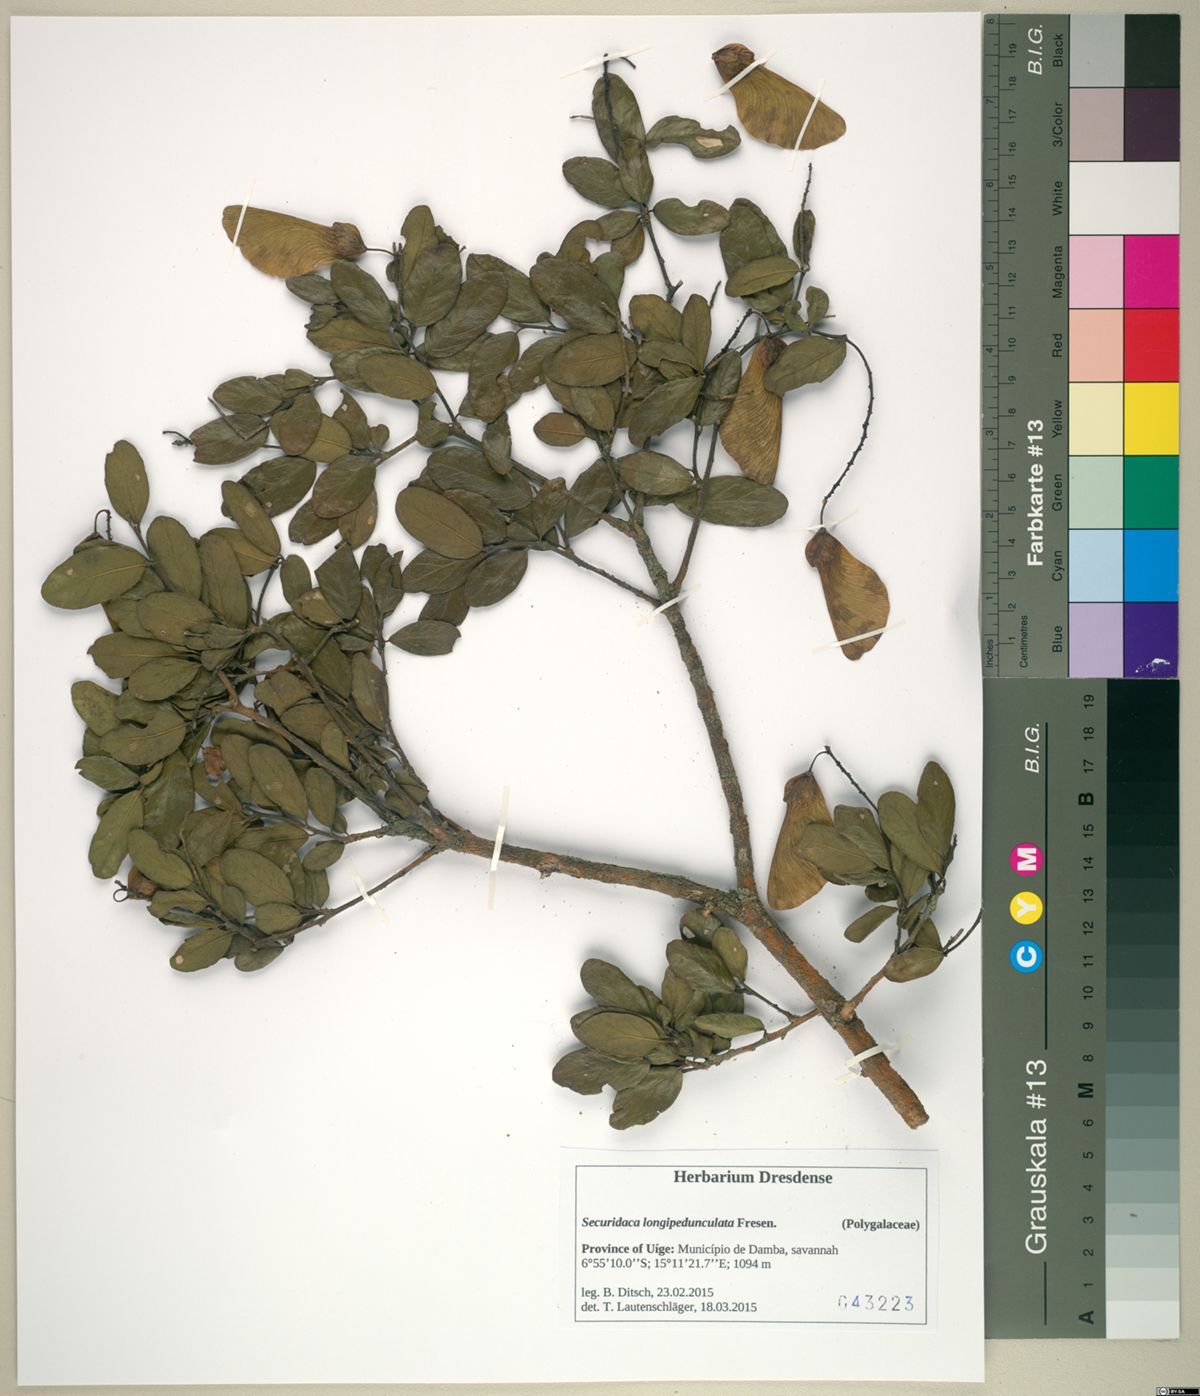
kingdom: Plantae
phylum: Tracheophyta
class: Magnoliopsida
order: Fabales
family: Polygalaceae
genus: Securidaca
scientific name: Securidaca longepedunculata
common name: Violet tree
